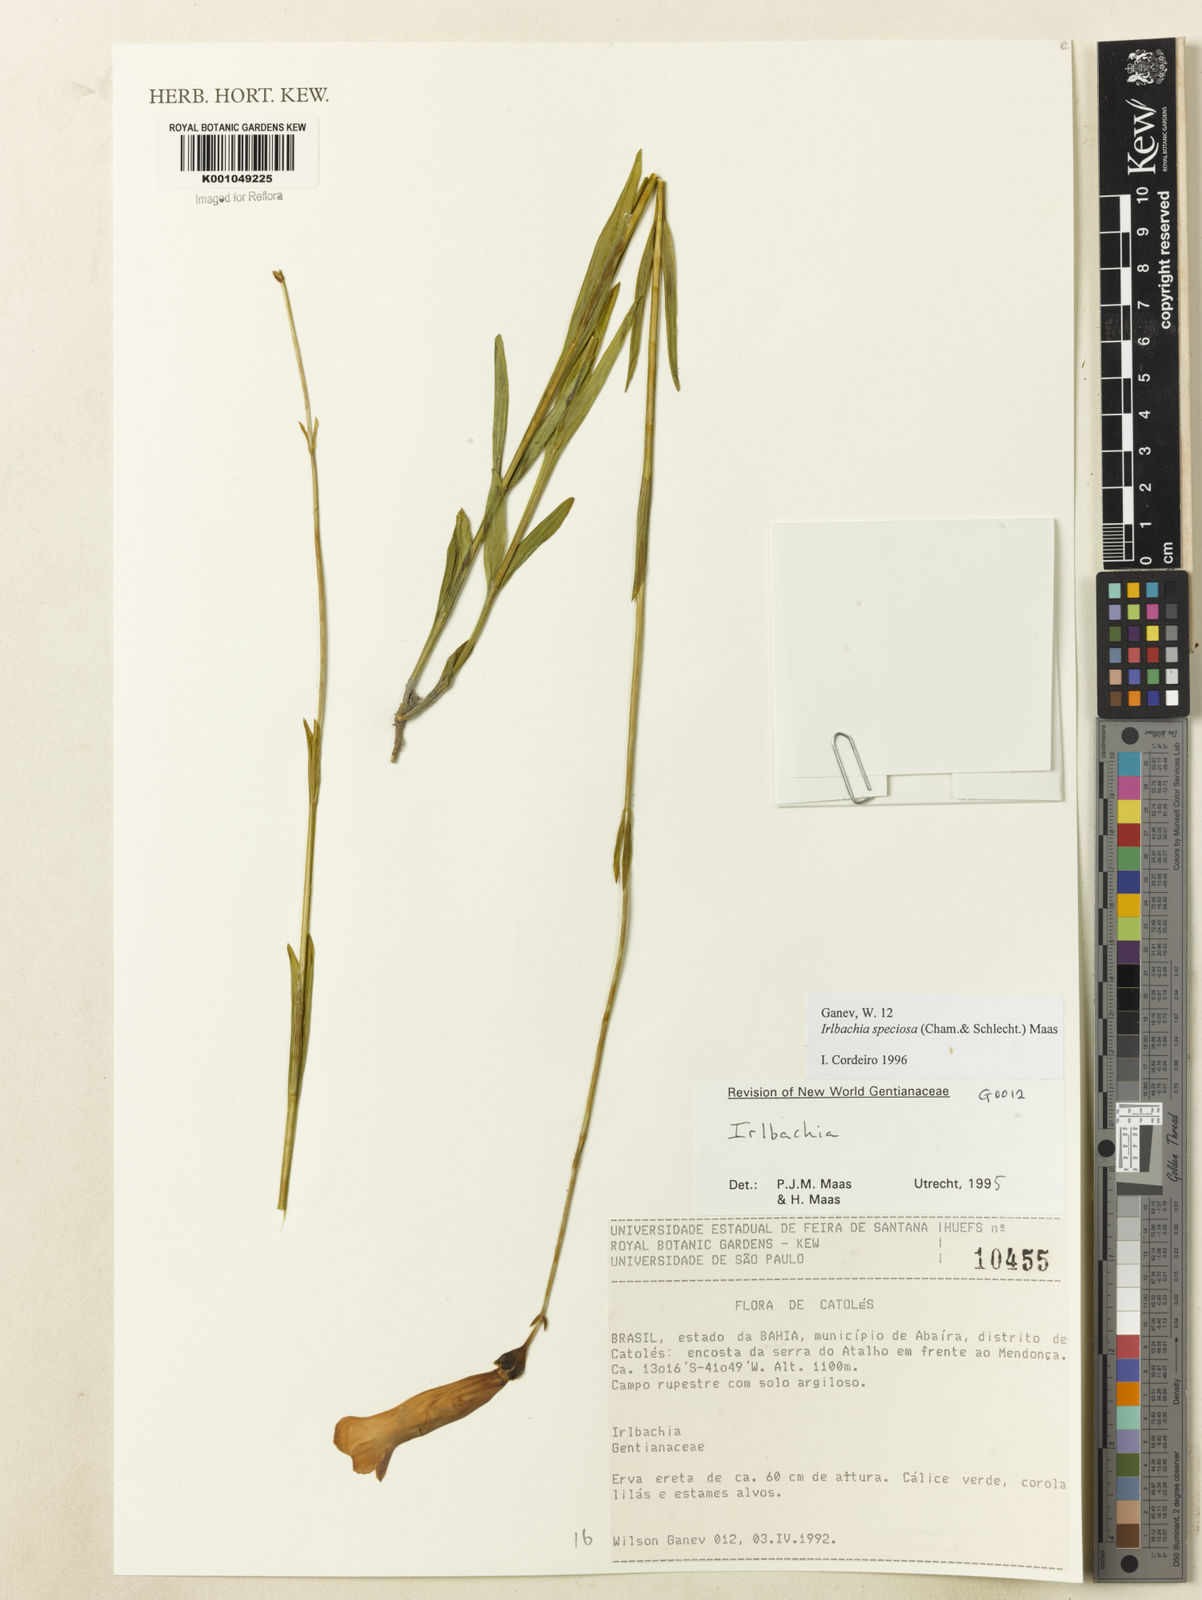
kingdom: Plantae
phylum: Tracheophyta
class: Magnoliopsida
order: Gentianales
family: Gentianaceae
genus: Calolisianthus
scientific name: Calolisianthus speciosus
